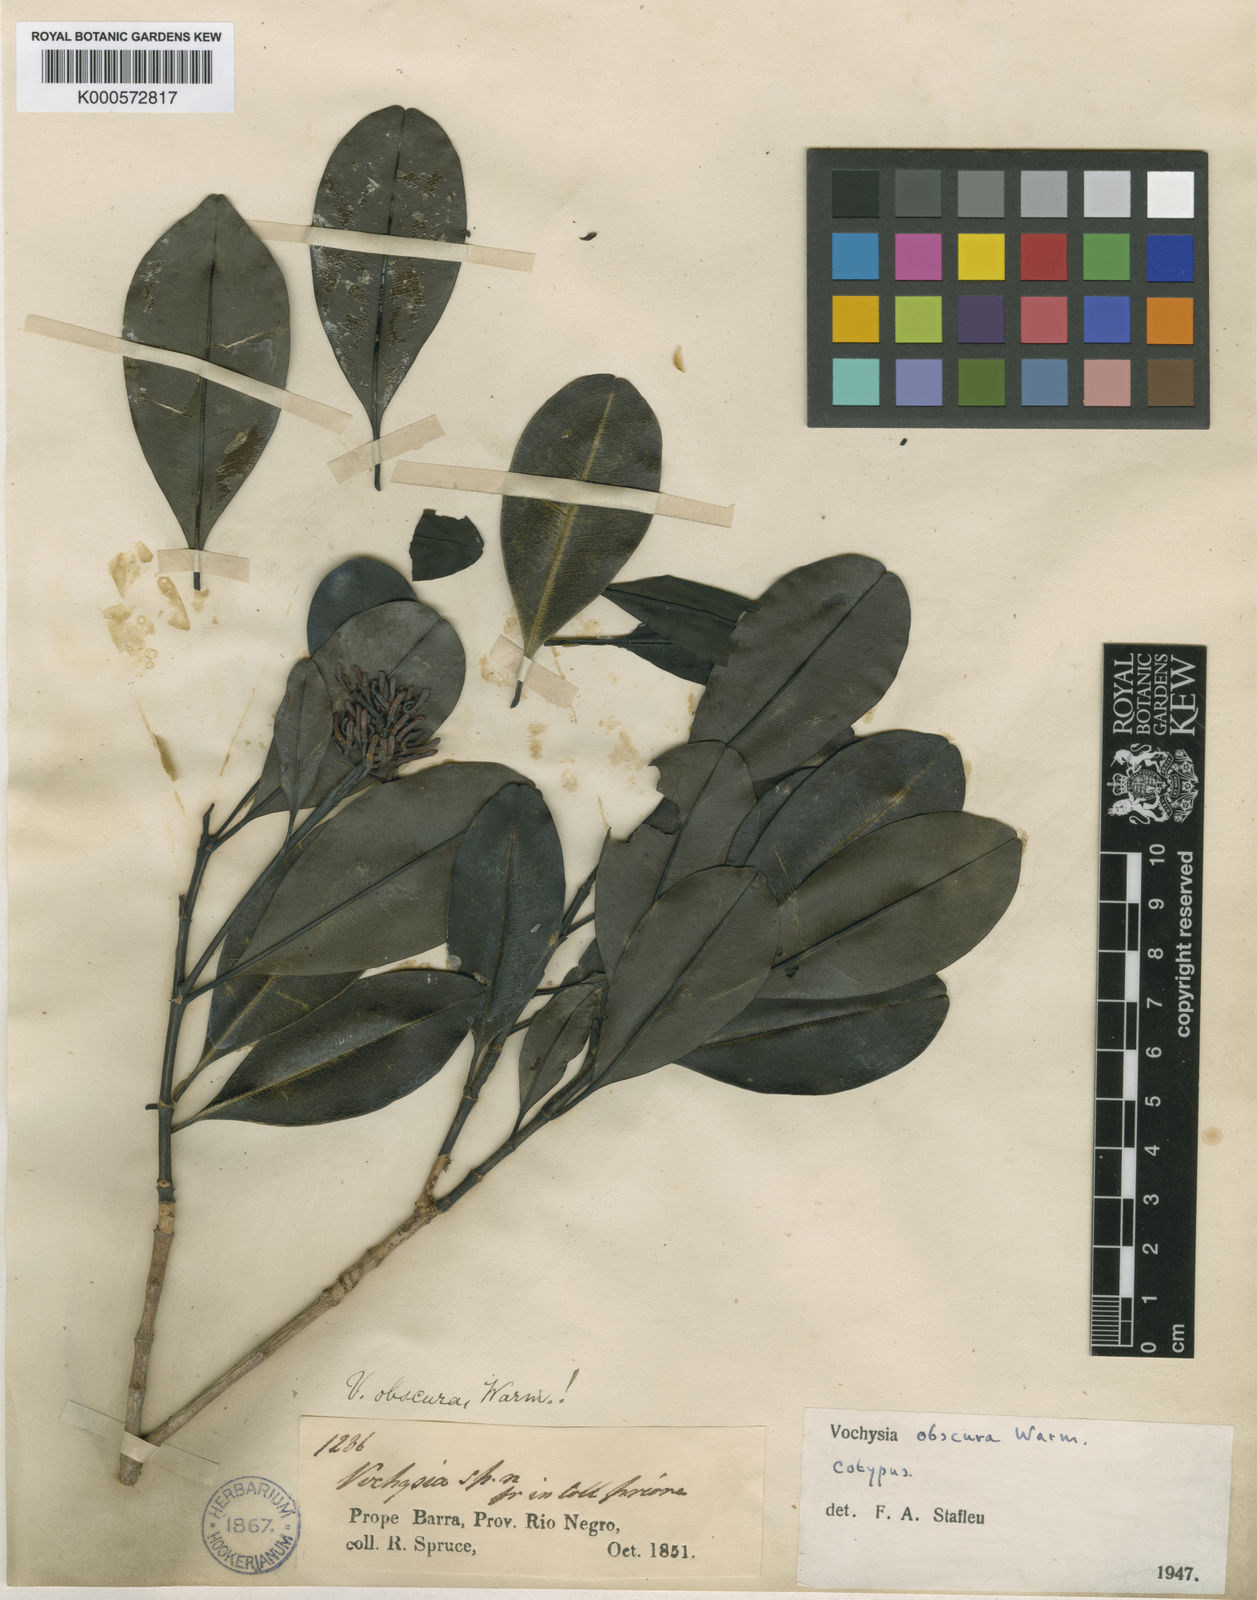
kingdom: Plantae
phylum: Tracheophyta
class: Magnoliopsida
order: Myrtales
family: Vochysiaceae
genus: Vochysia
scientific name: Vochysia obscura
